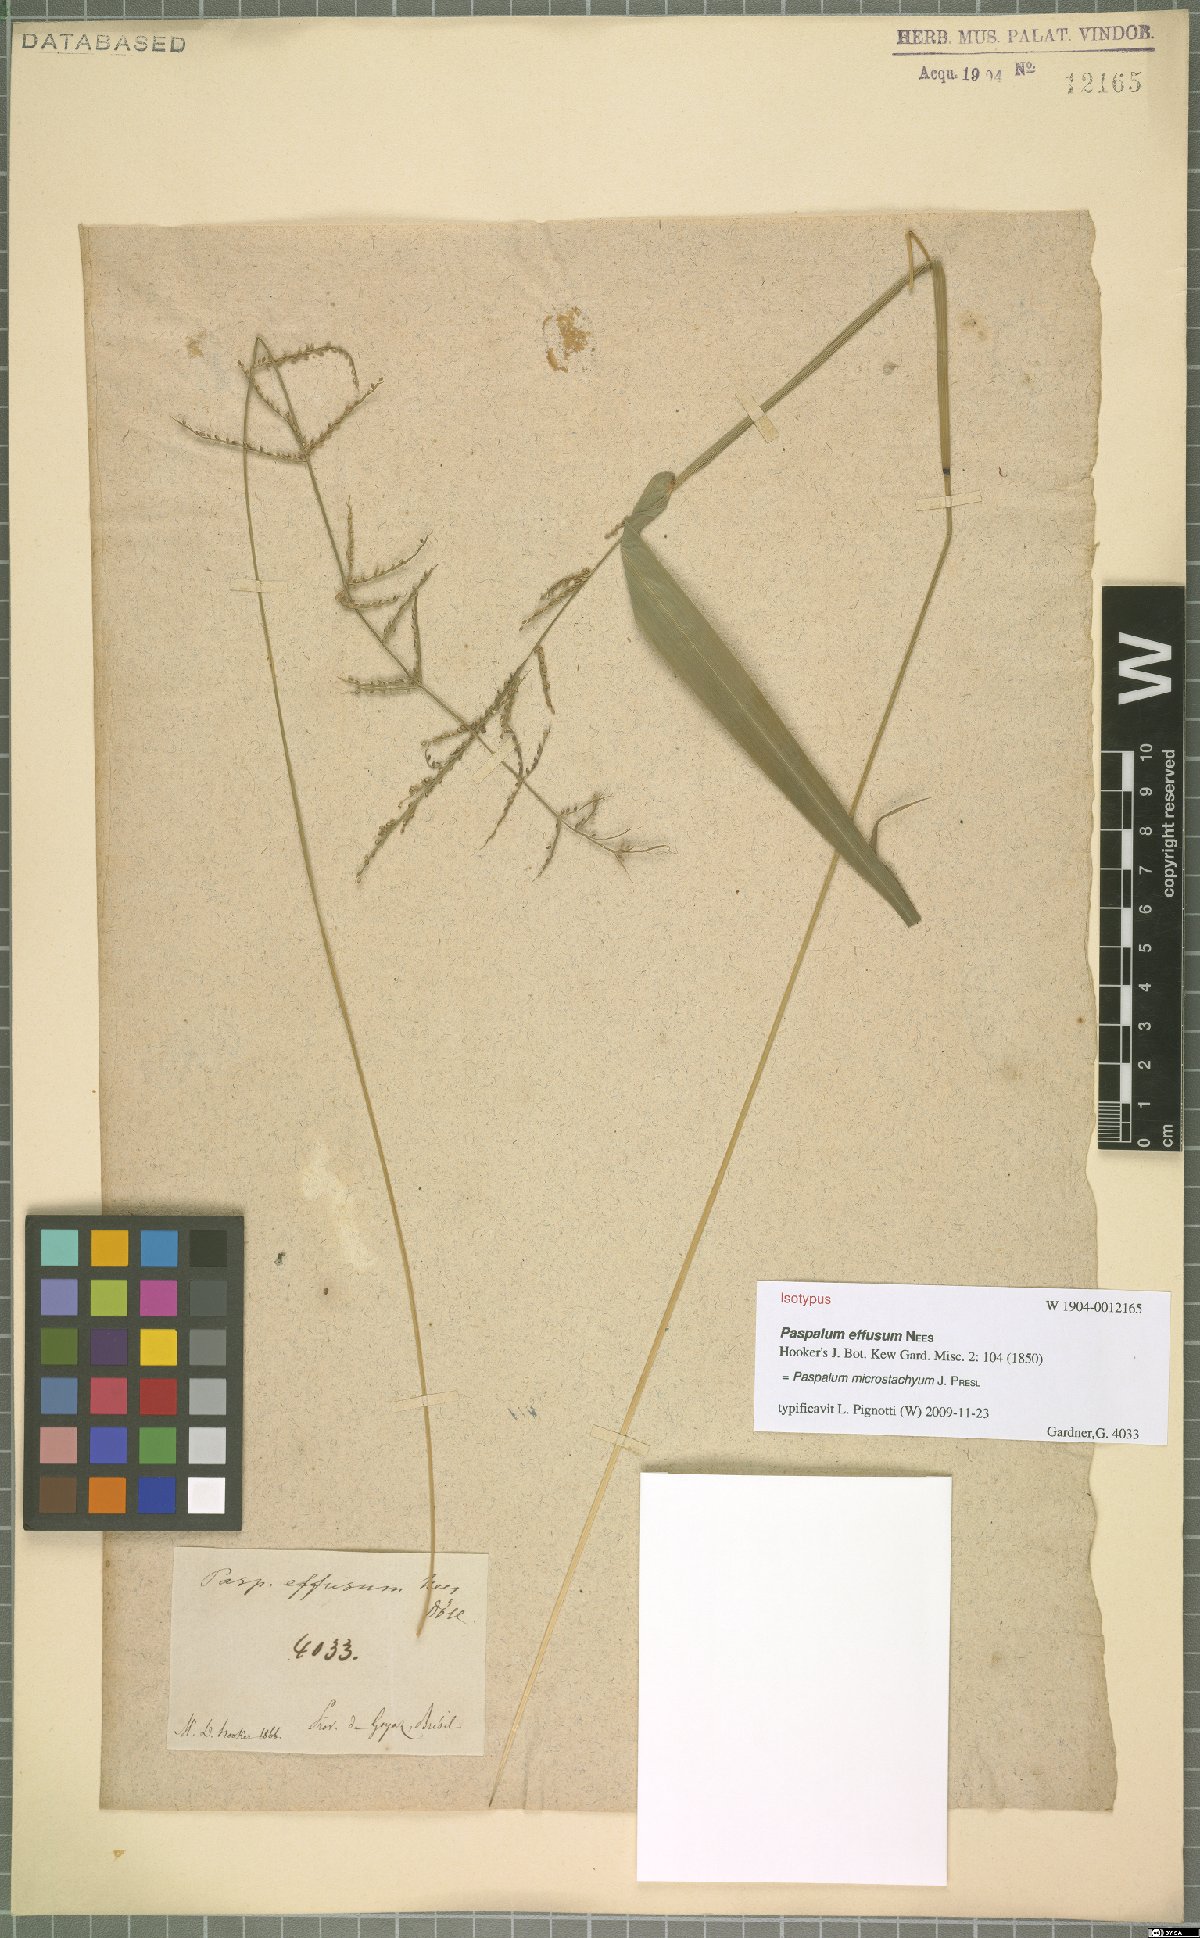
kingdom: Plantae
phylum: Tracheophyta
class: Liliopsida
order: Poales
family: Poaceae
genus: Paspalum
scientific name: Paspalum microstachyum
